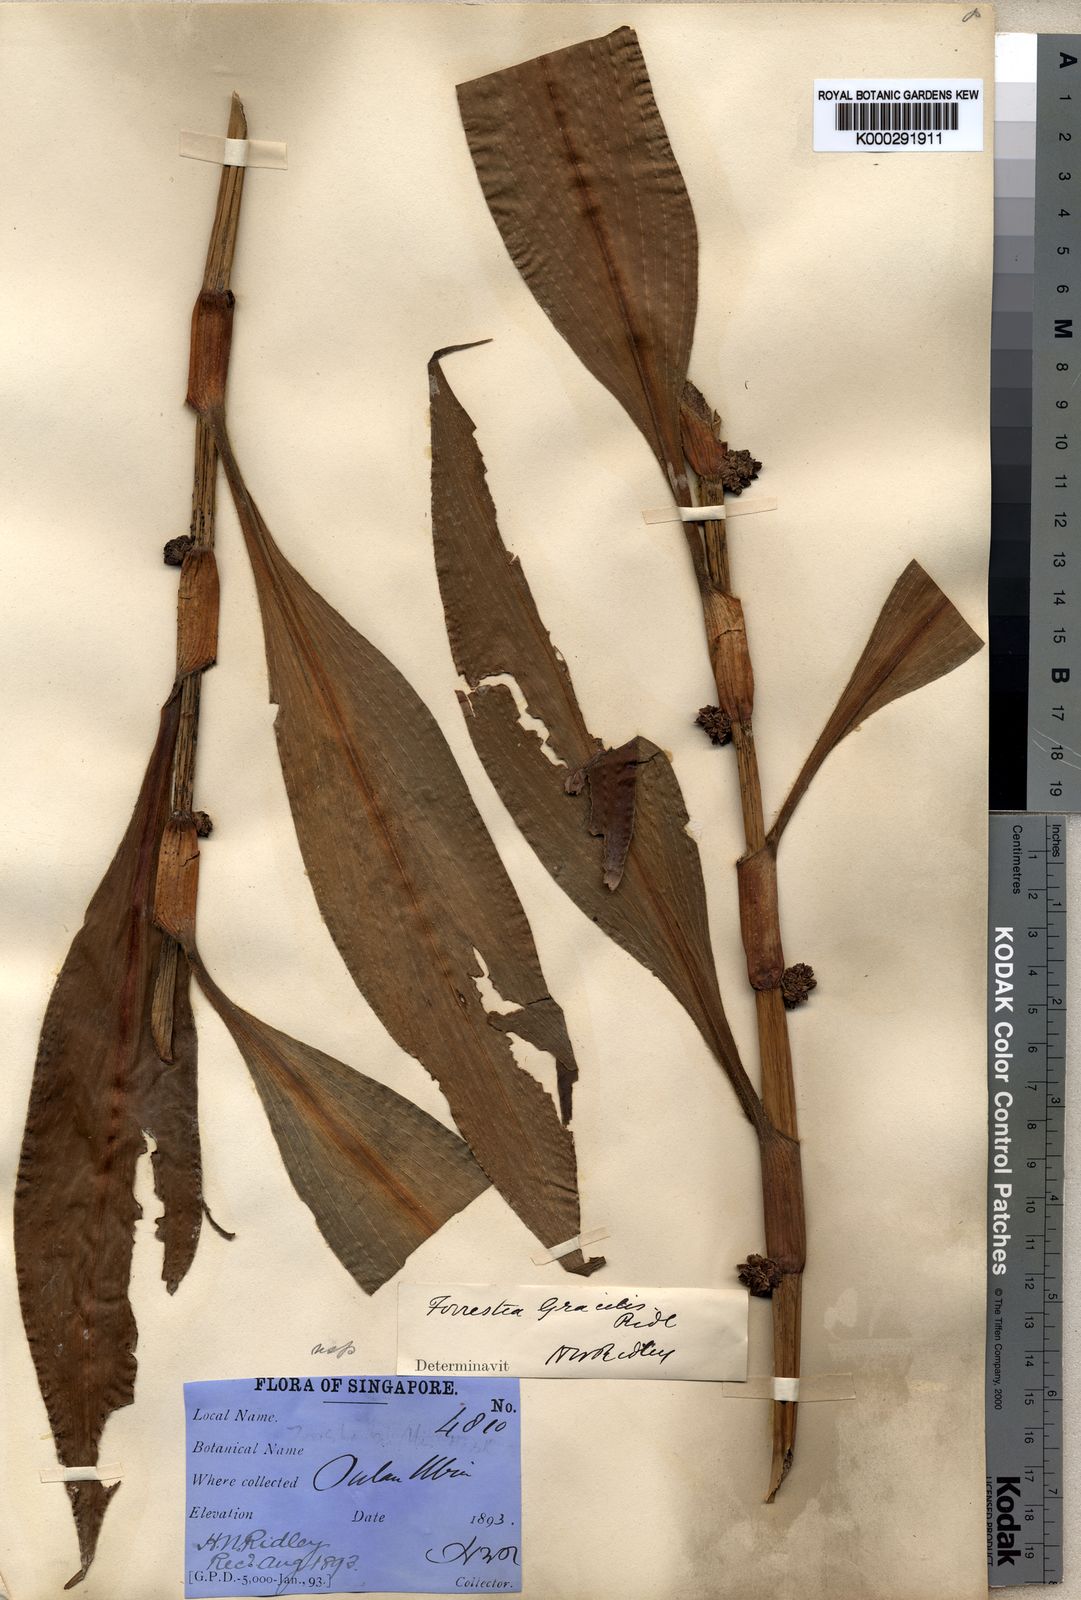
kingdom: Plantae
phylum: Tracheophyta
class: Liliopsida
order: Commelinales
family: Commelinaceae
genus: Amischotolype
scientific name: Amischotolype gracilis
